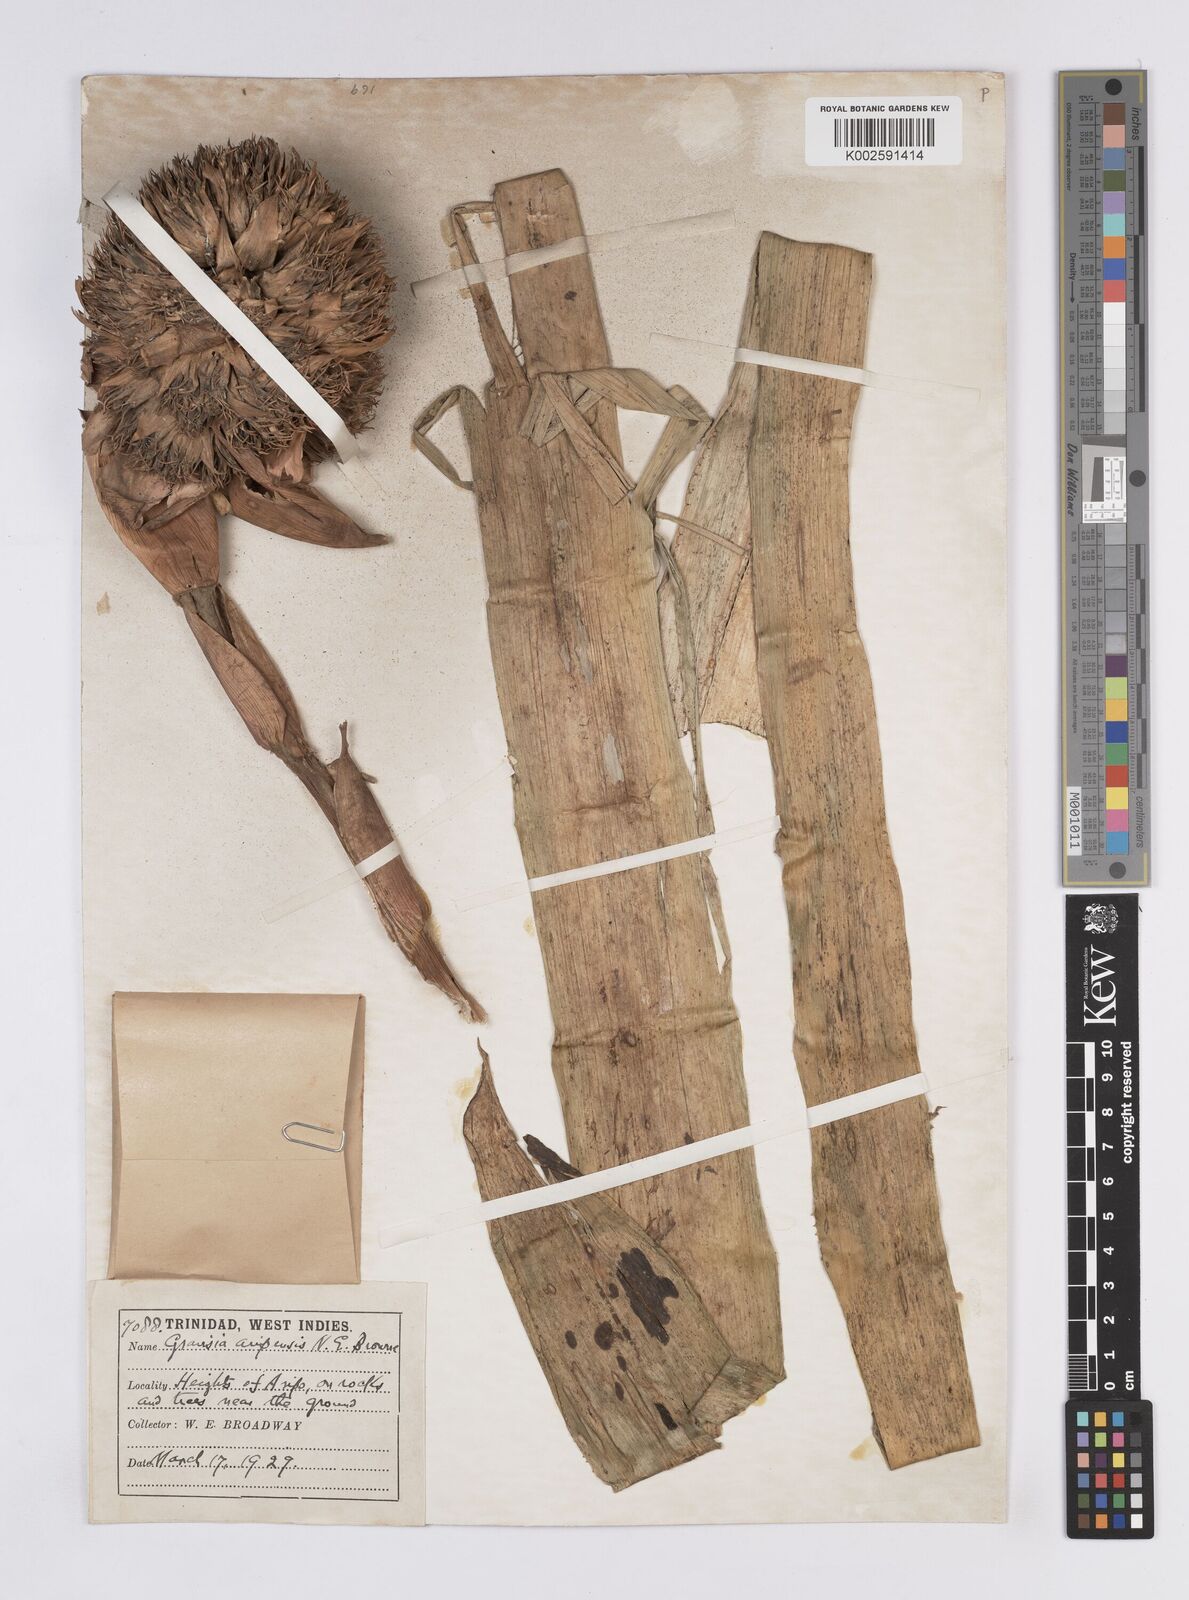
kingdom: Plantae
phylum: Tracheophyta
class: Liliopsida
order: Poales
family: Bromeliaceae
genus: Aechmea
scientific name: Aechmea
